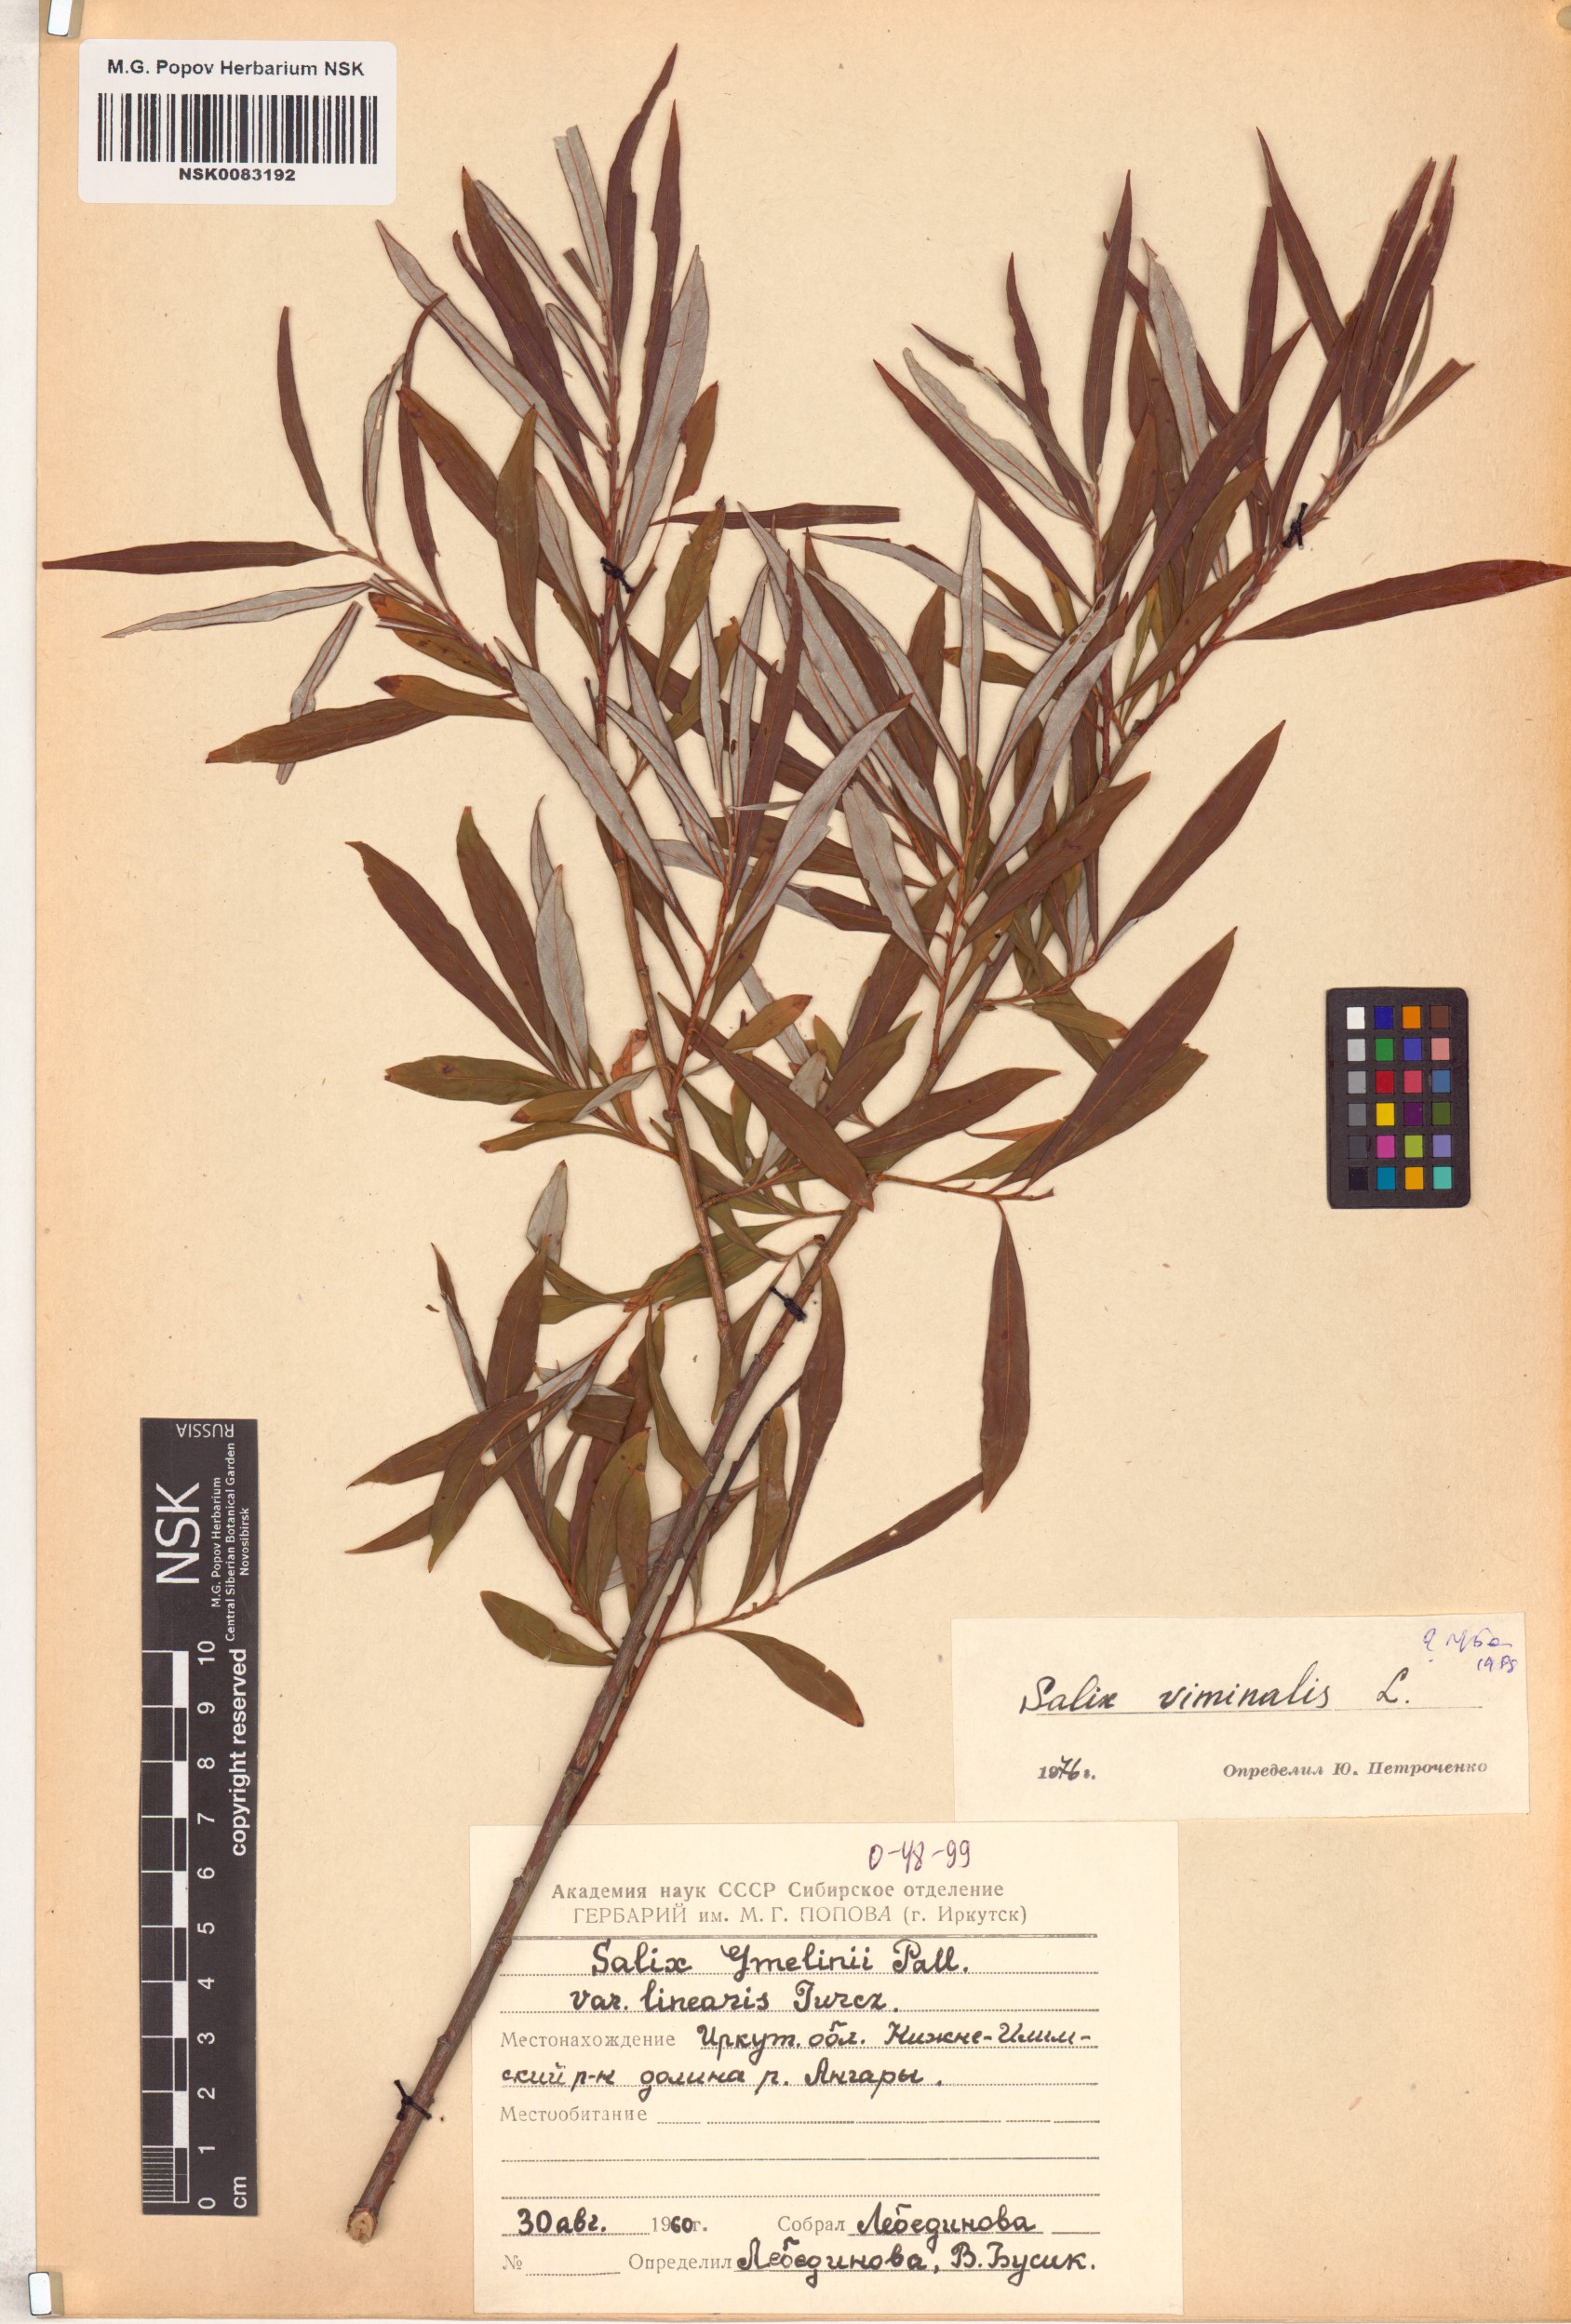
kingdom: Plantae
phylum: Tracheophyta
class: Magnoliopsida
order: Malpighiales
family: Salicaceae
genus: Salix
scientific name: Salix viminalis
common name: Osier
